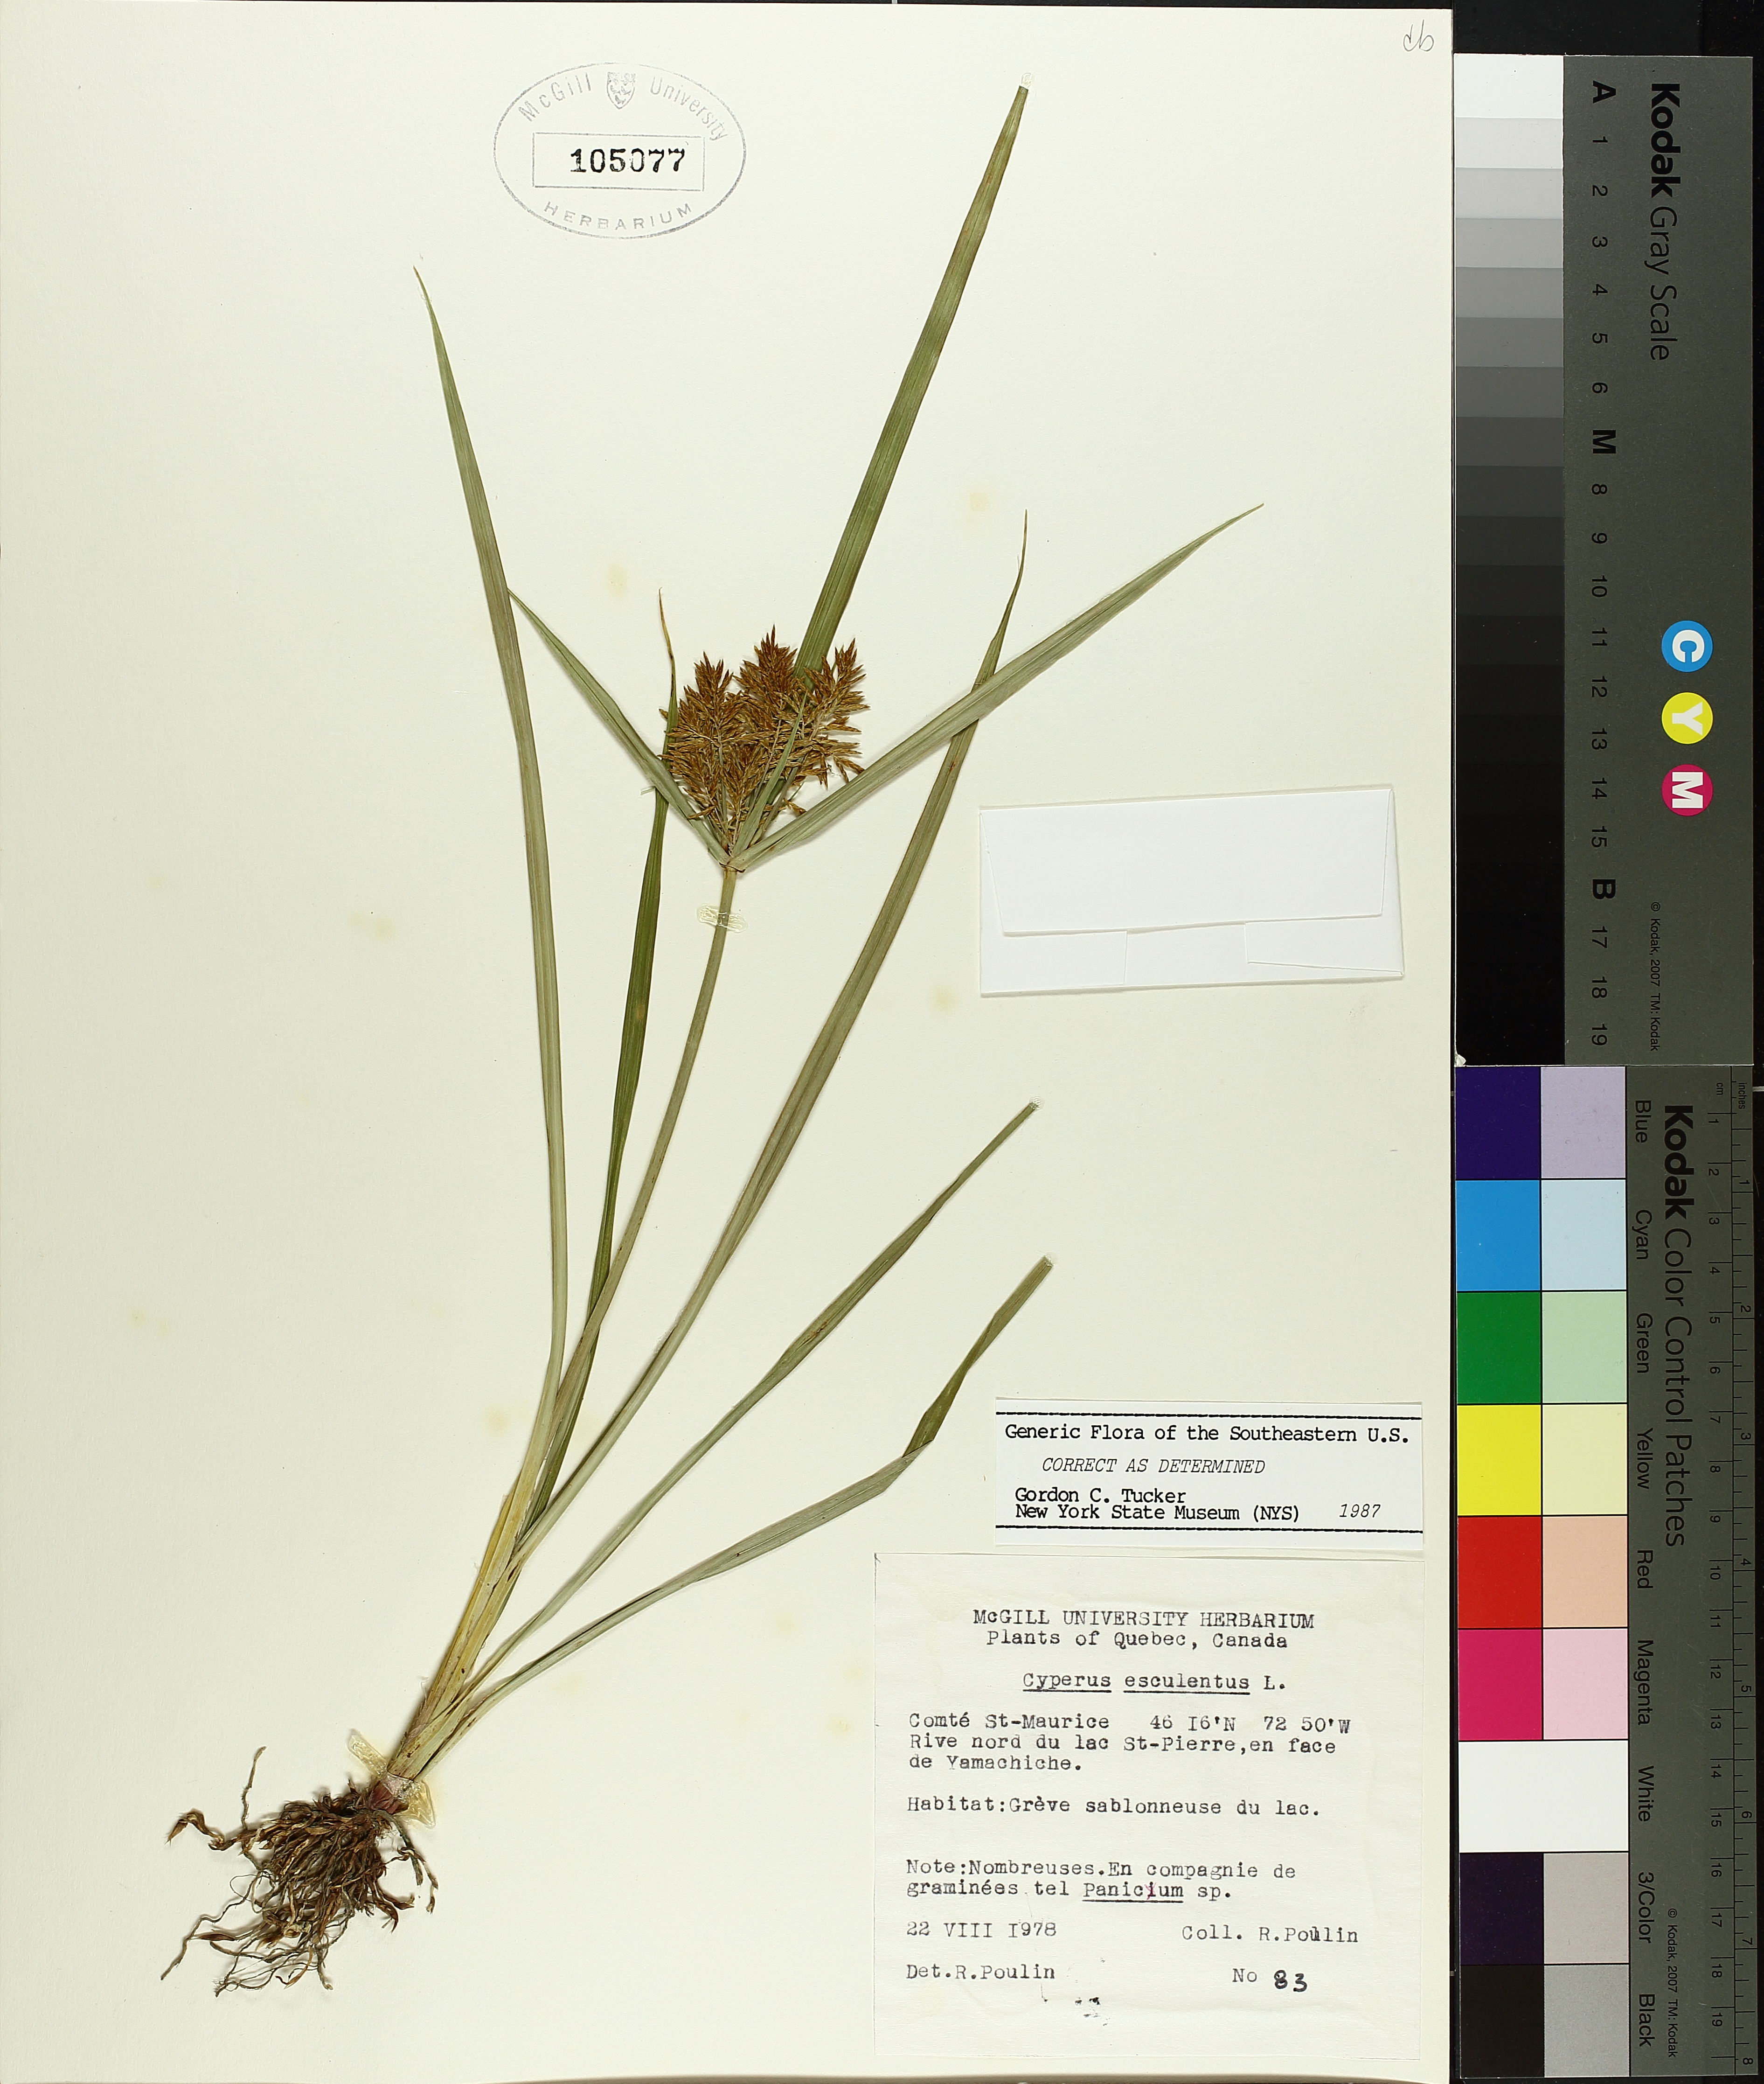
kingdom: Plantae
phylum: Tracheophyta
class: Liliopsida
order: Poales
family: Cyperaceae
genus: Cyperus
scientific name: Cyperus esculentus
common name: Yellow nutsedge
